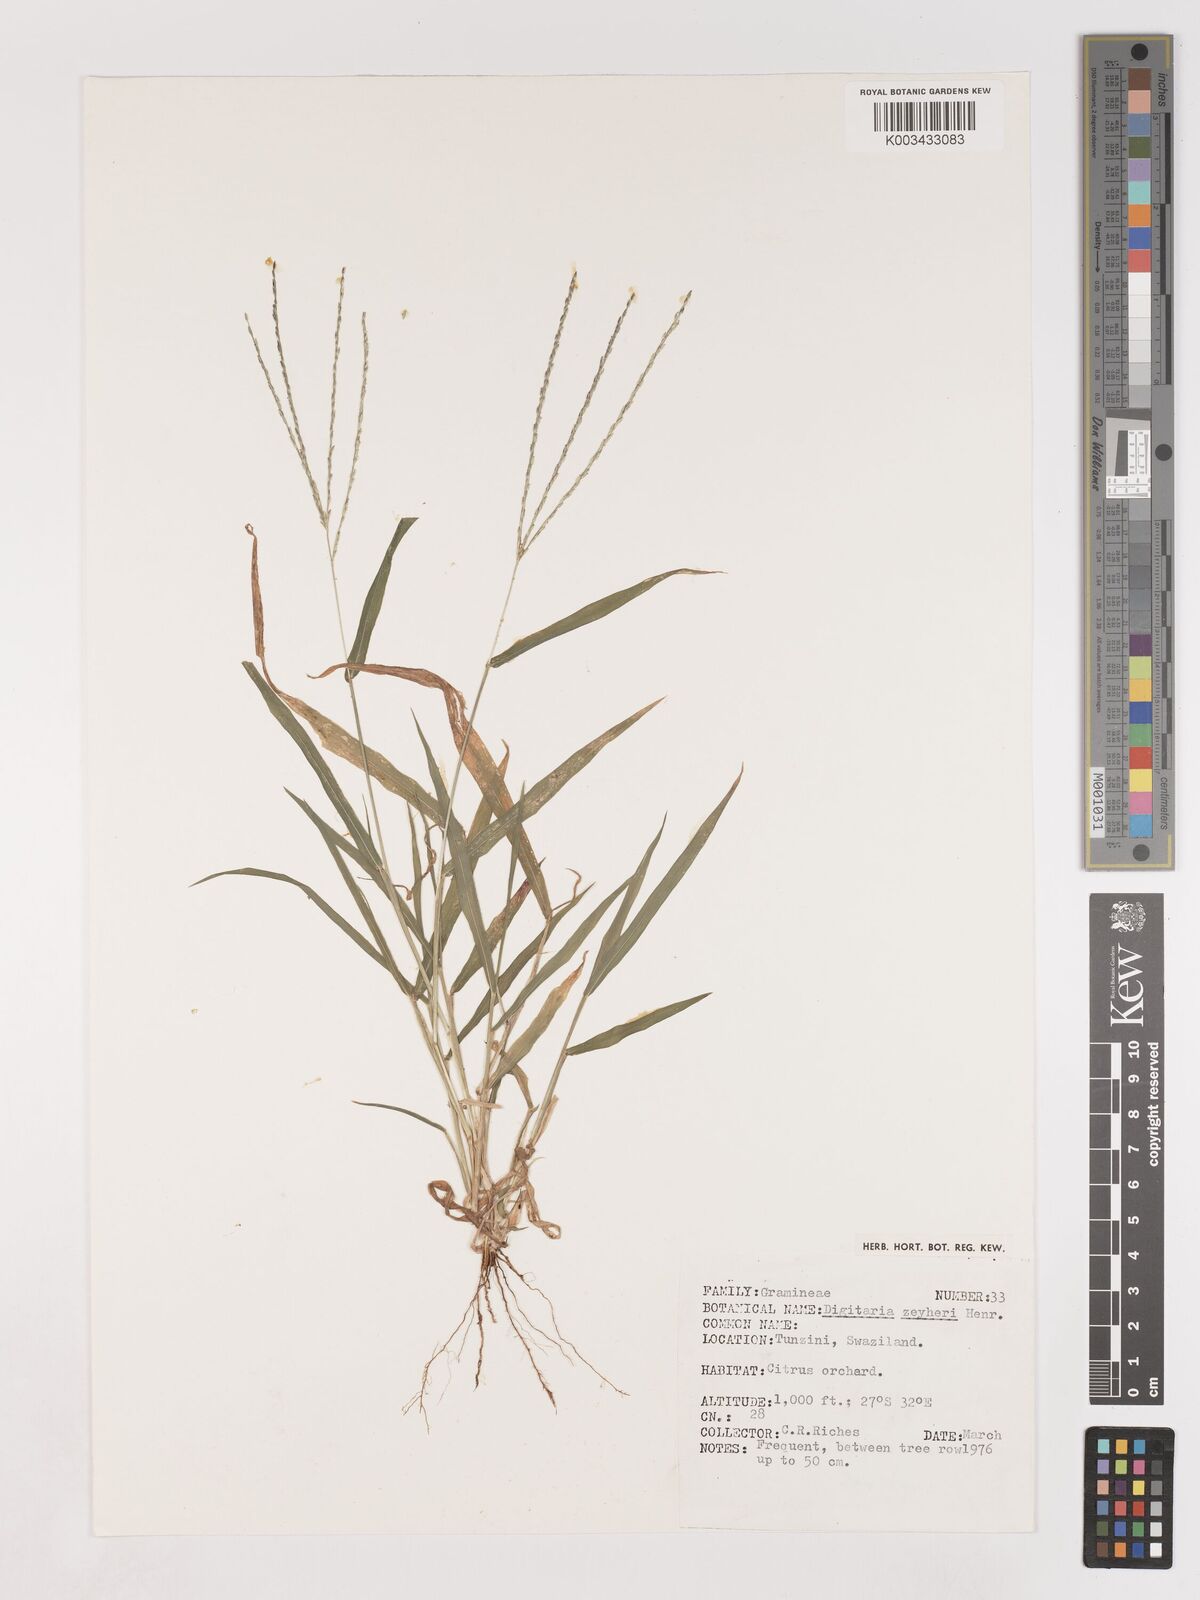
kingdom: Plantae
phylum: Tracheophyta
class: Liliopsida
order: Poales
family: Poaceae
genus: Digitaria
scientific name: Digitaria velutina
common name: Long-plume finger grass
